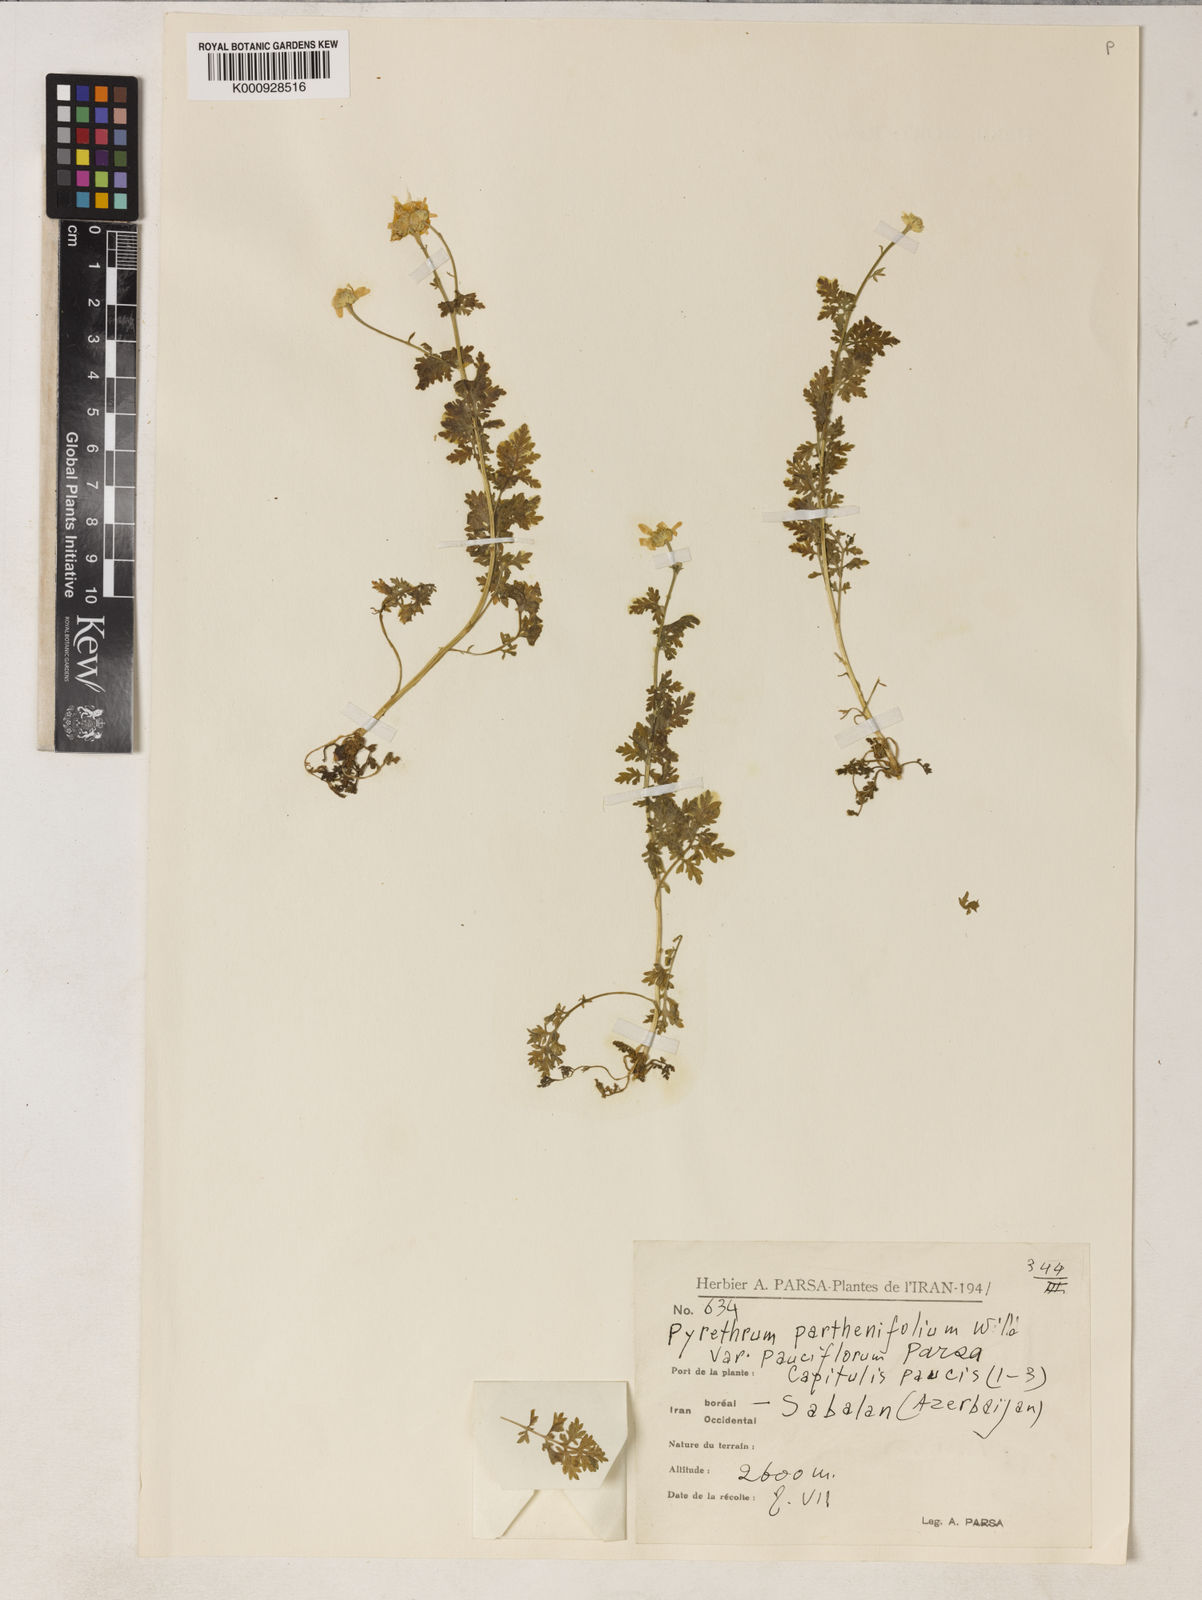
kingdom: Plantae
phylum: Tracheophyta
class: Magnoliopsida
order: Asterales
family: Asteraceae
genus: Tanacetum
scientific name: Tanacetum
